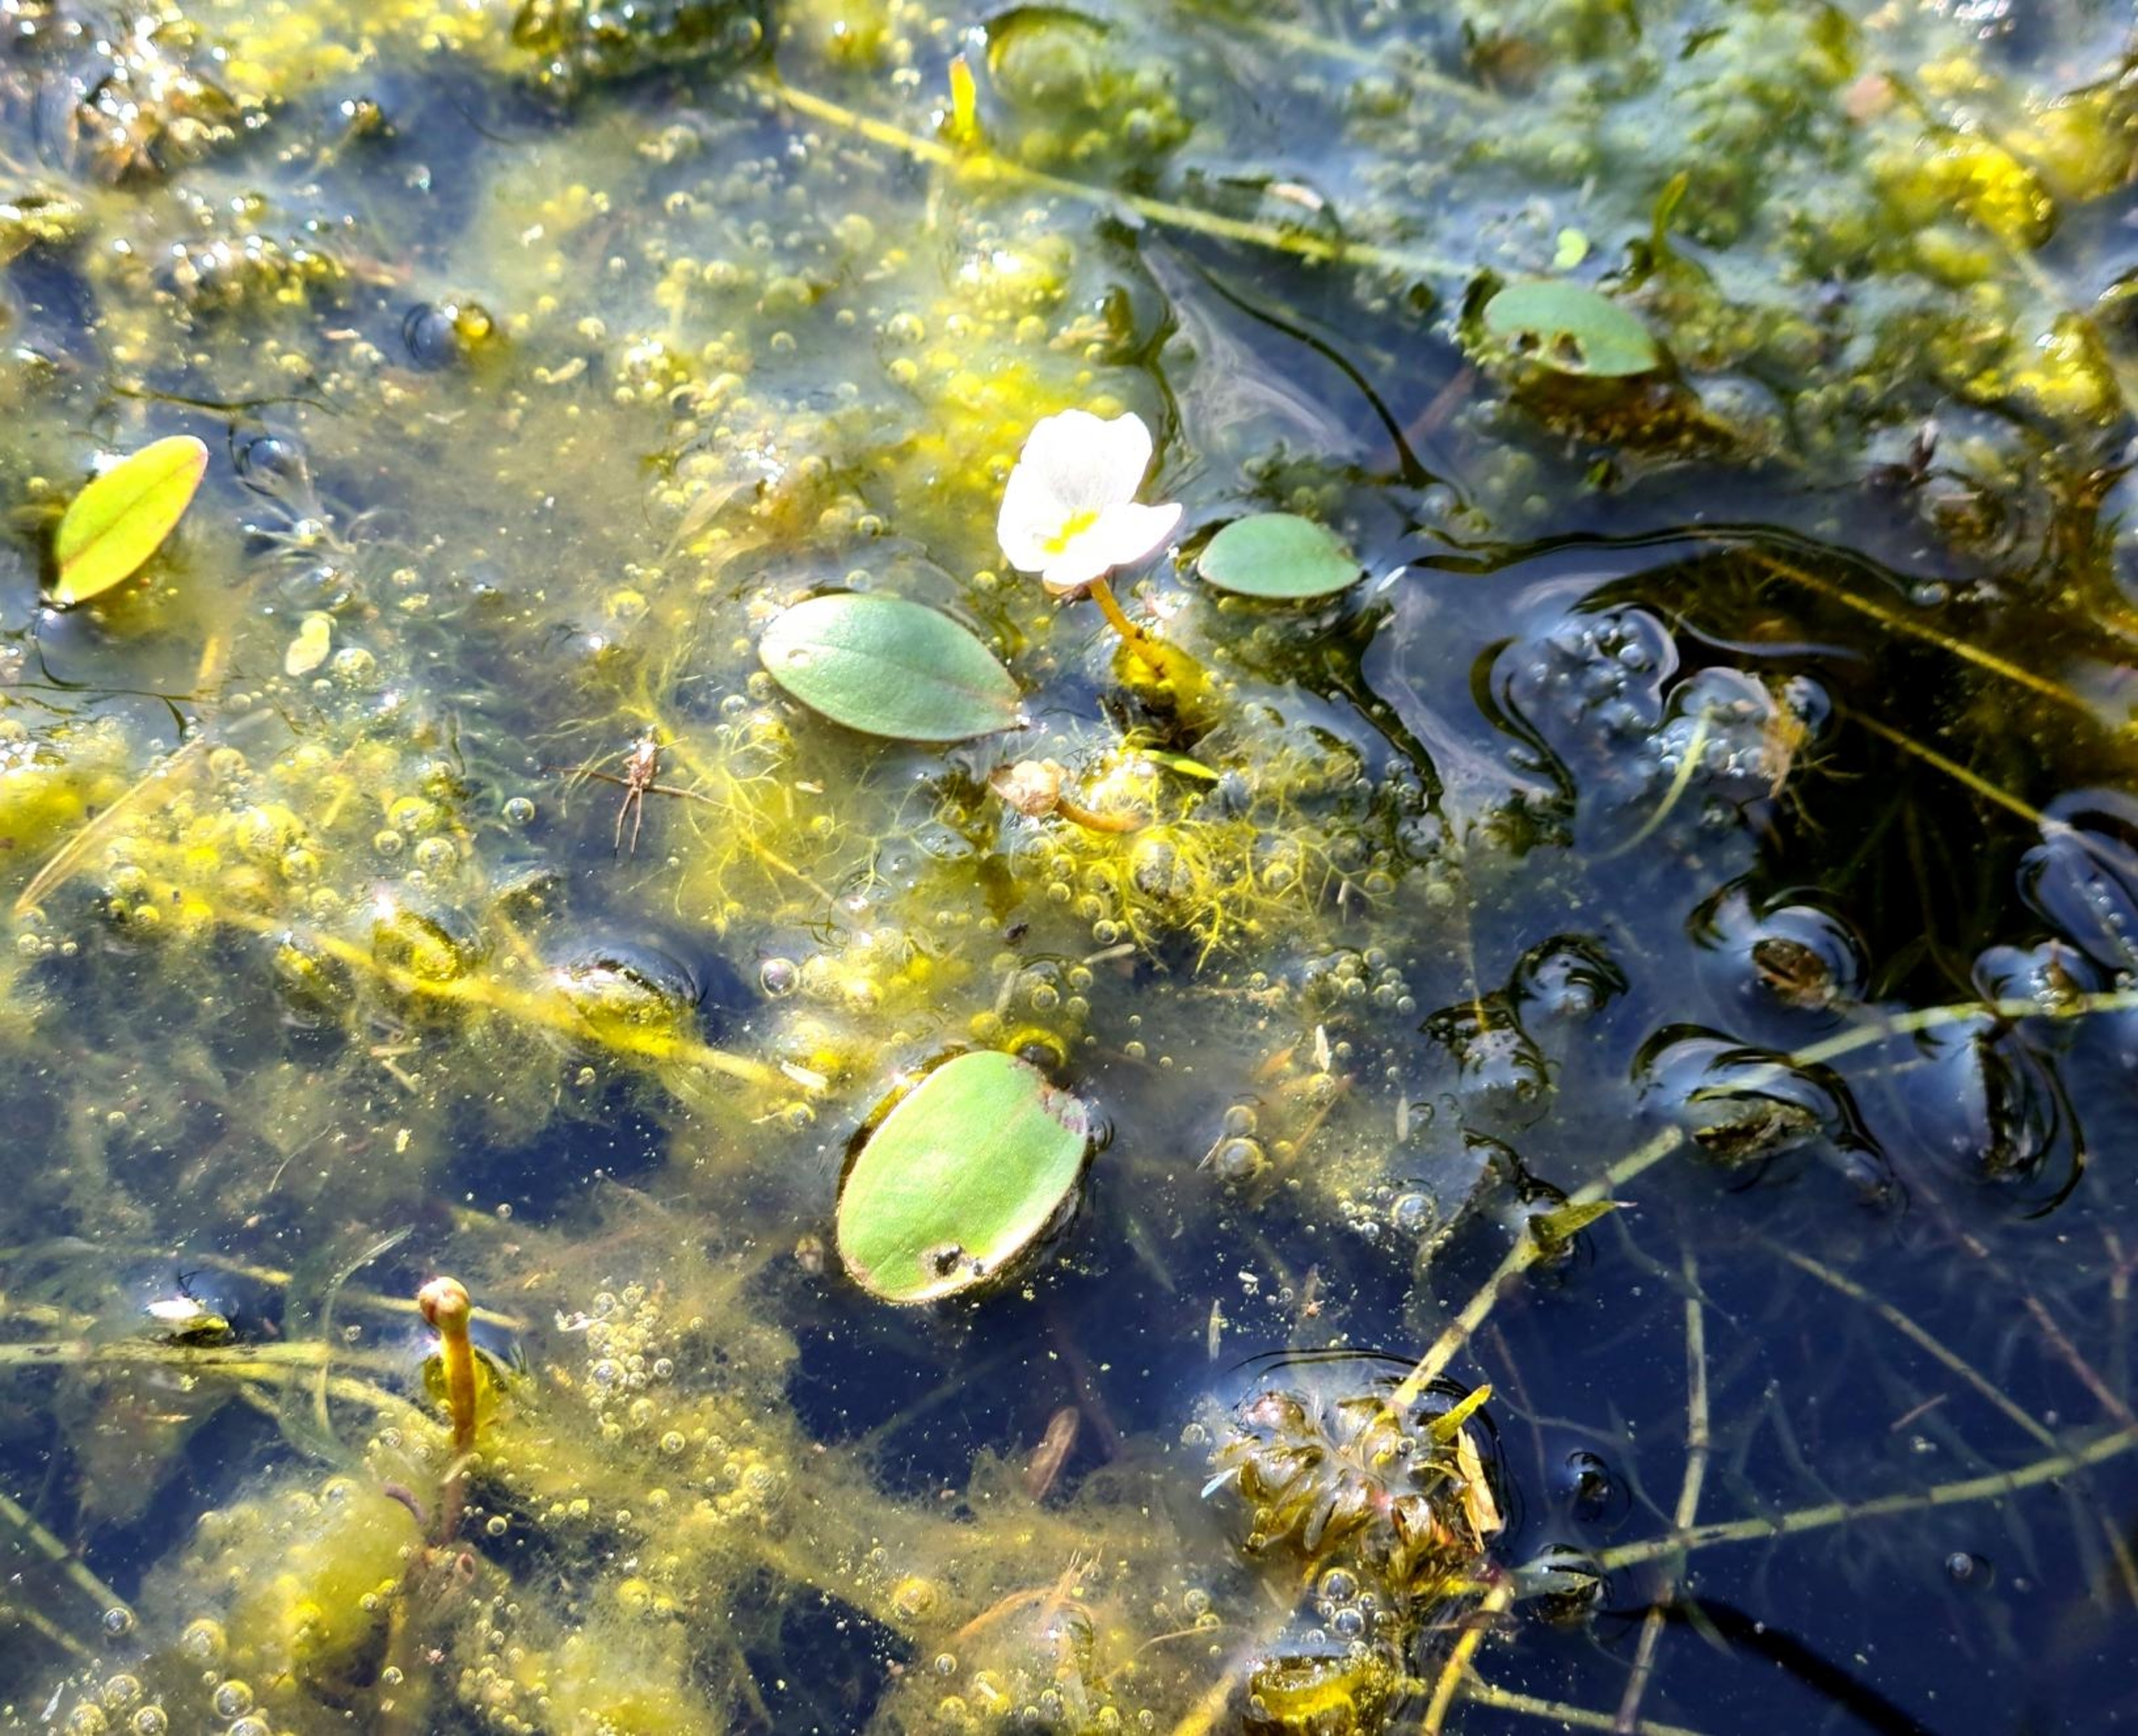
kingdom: Plantae
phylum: Tracheophyta
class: Liliopsida
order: Alismatales
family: Alismataceae
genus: Luronium
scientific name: Luronium natans
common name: Vandranke
